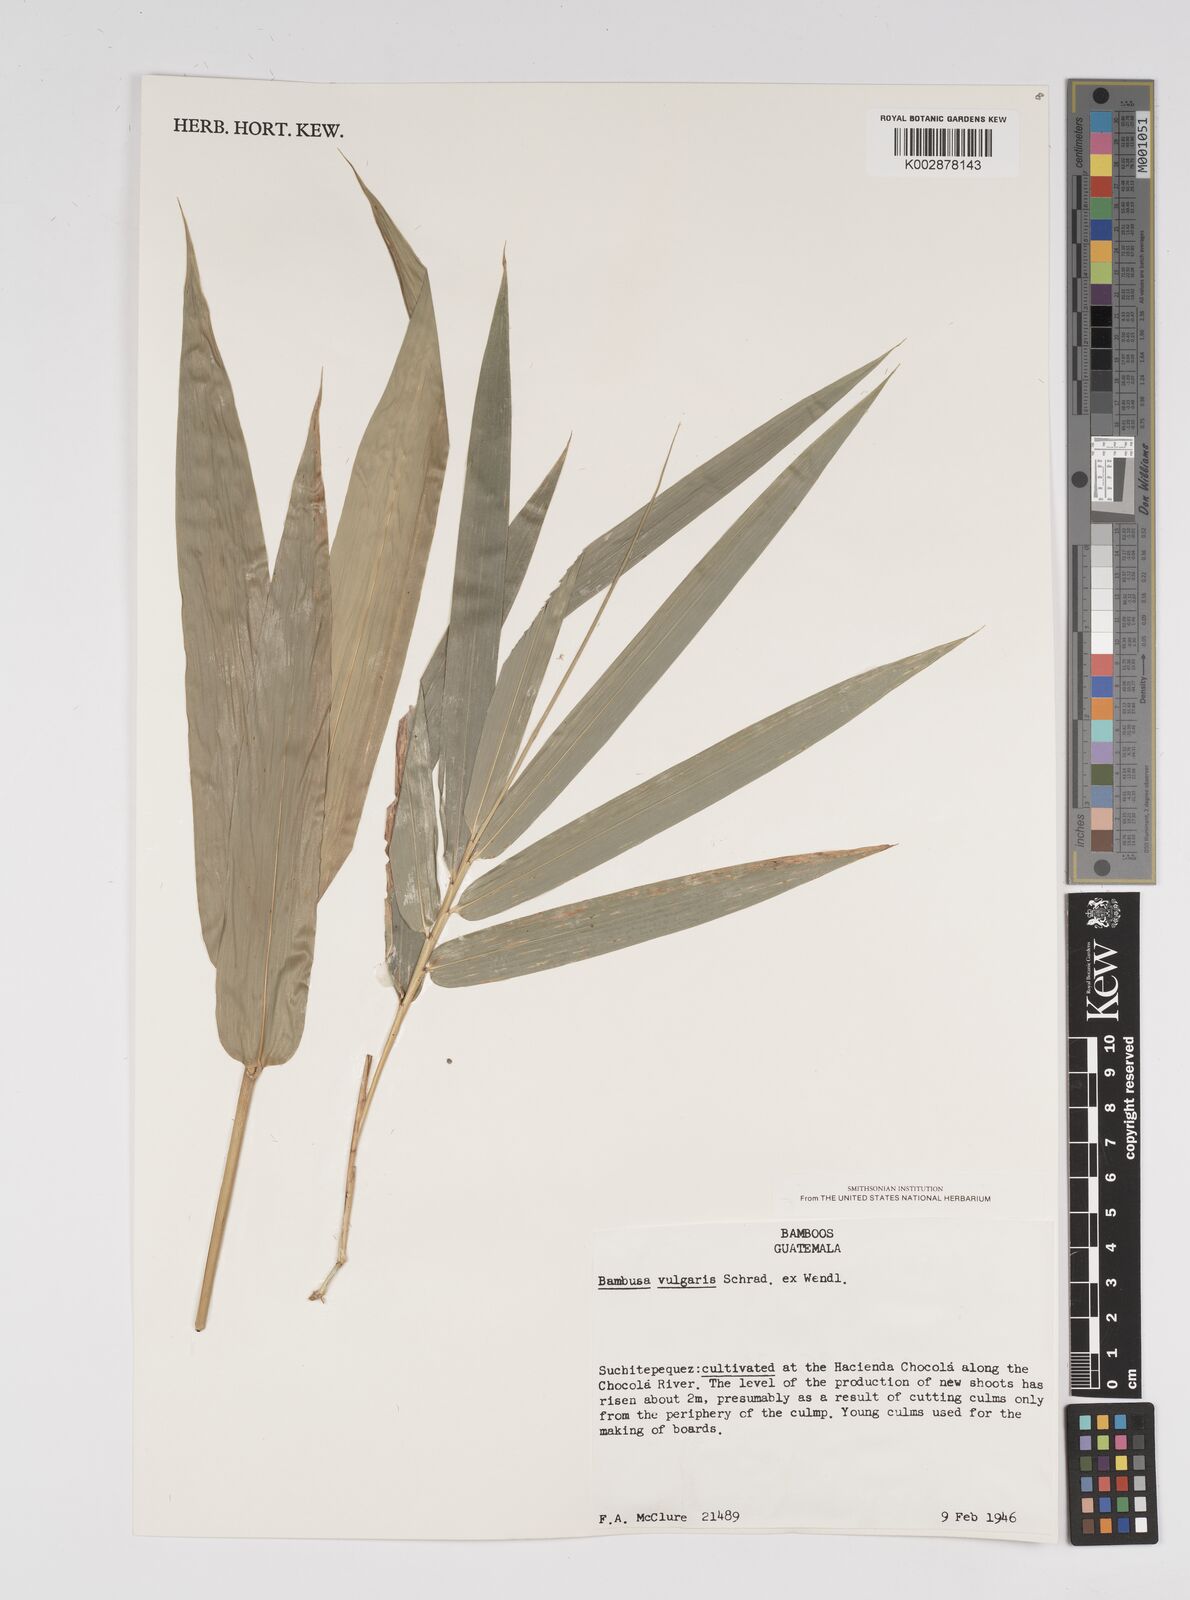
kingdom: Plantae
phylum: Tracheophyta
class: Liliopsida
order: Poales
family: Poaceae
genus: Bambusa
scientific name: Bambusa
